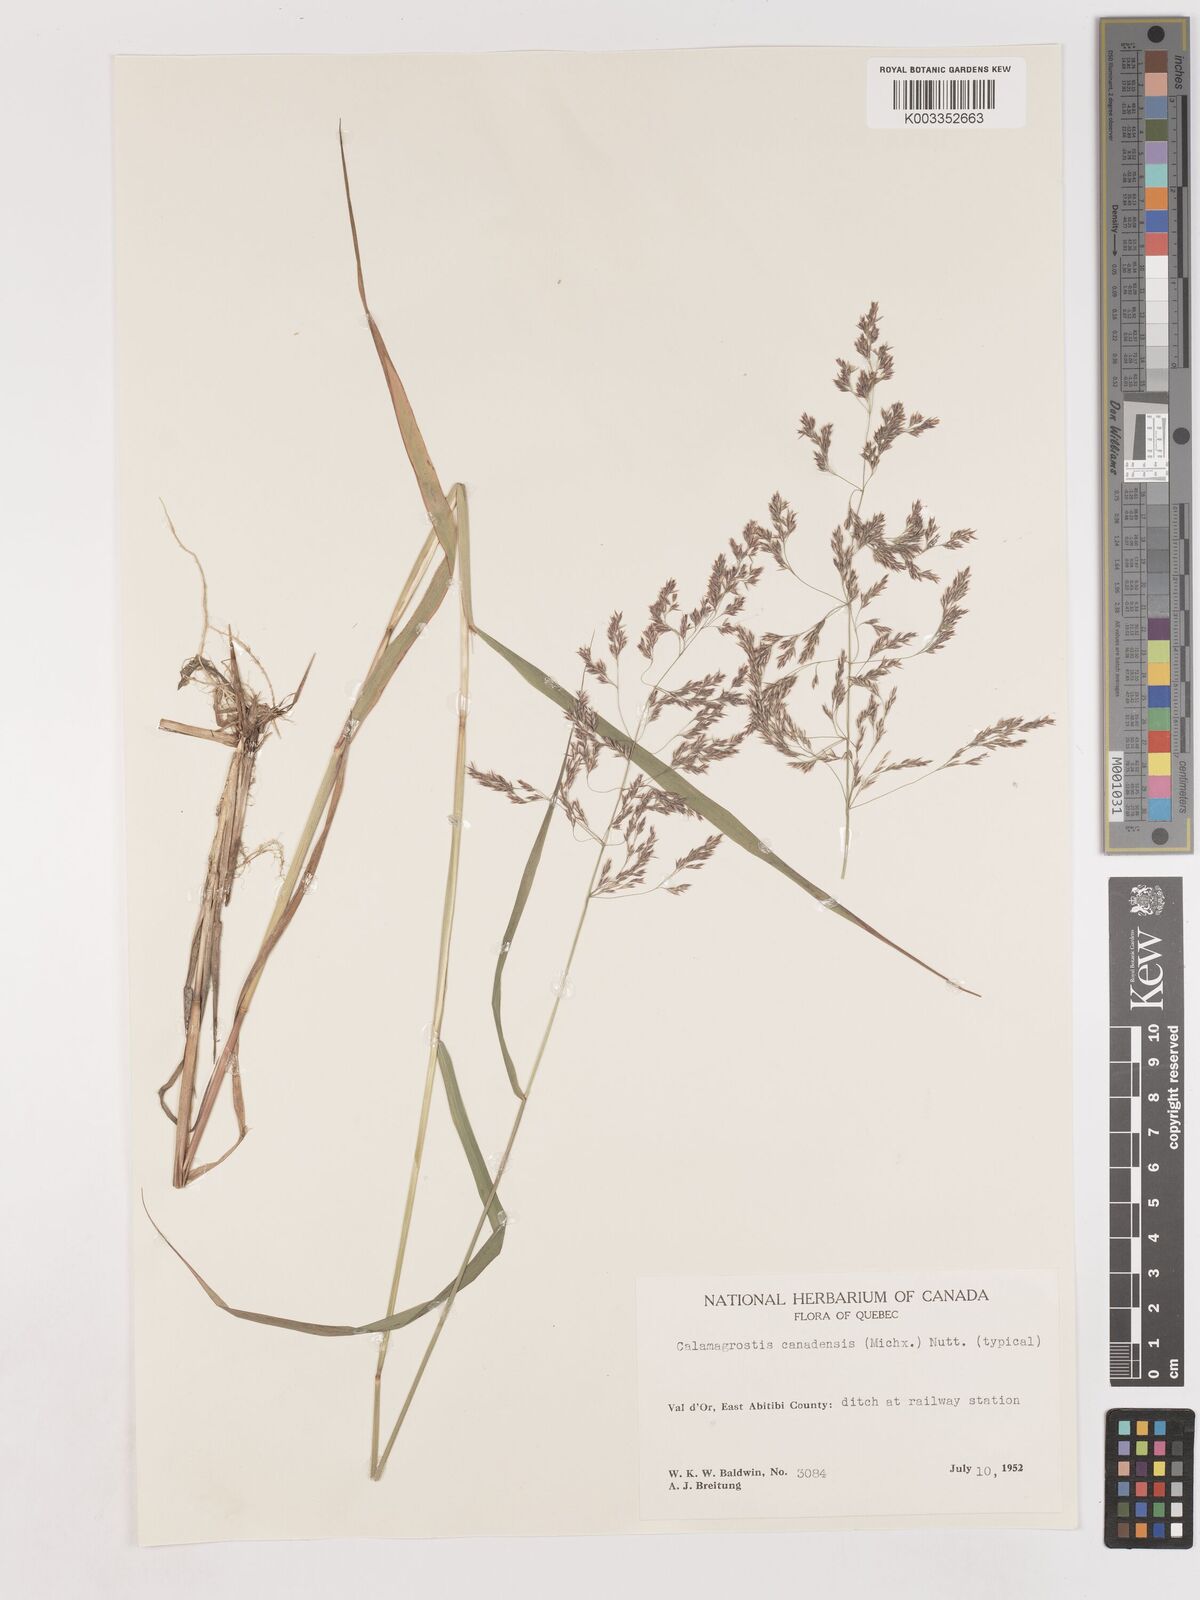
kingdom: Plantae
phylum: Tracheophyta
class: Liliopsida
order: Poales
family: Poaceae
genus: Calamagrostis
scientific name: Calamagrostis canadensis
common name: Canada bluejoint
